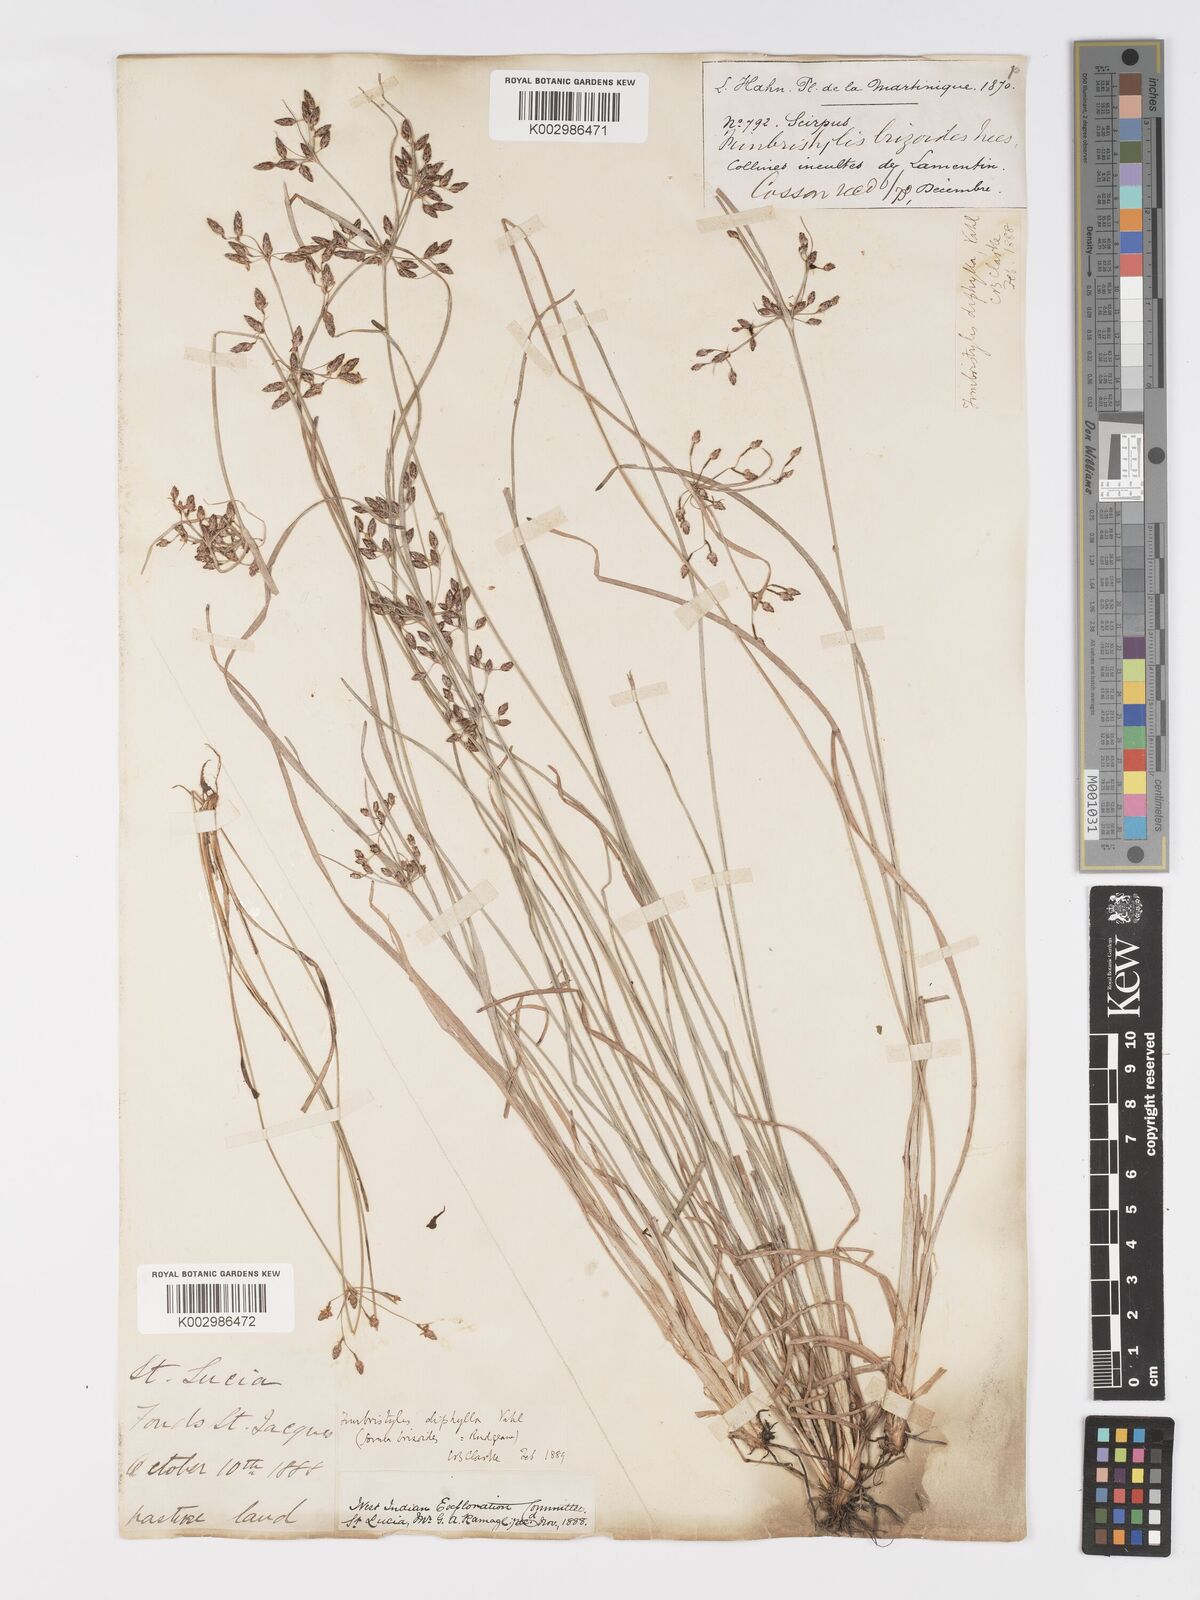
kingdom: Plantae
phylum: Tracheophyta
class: Liliopsida
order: Poales
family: Cyperaceae
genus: Fimbristylis
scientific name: Fimbristylis dichotoma
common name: Forked fimbry
